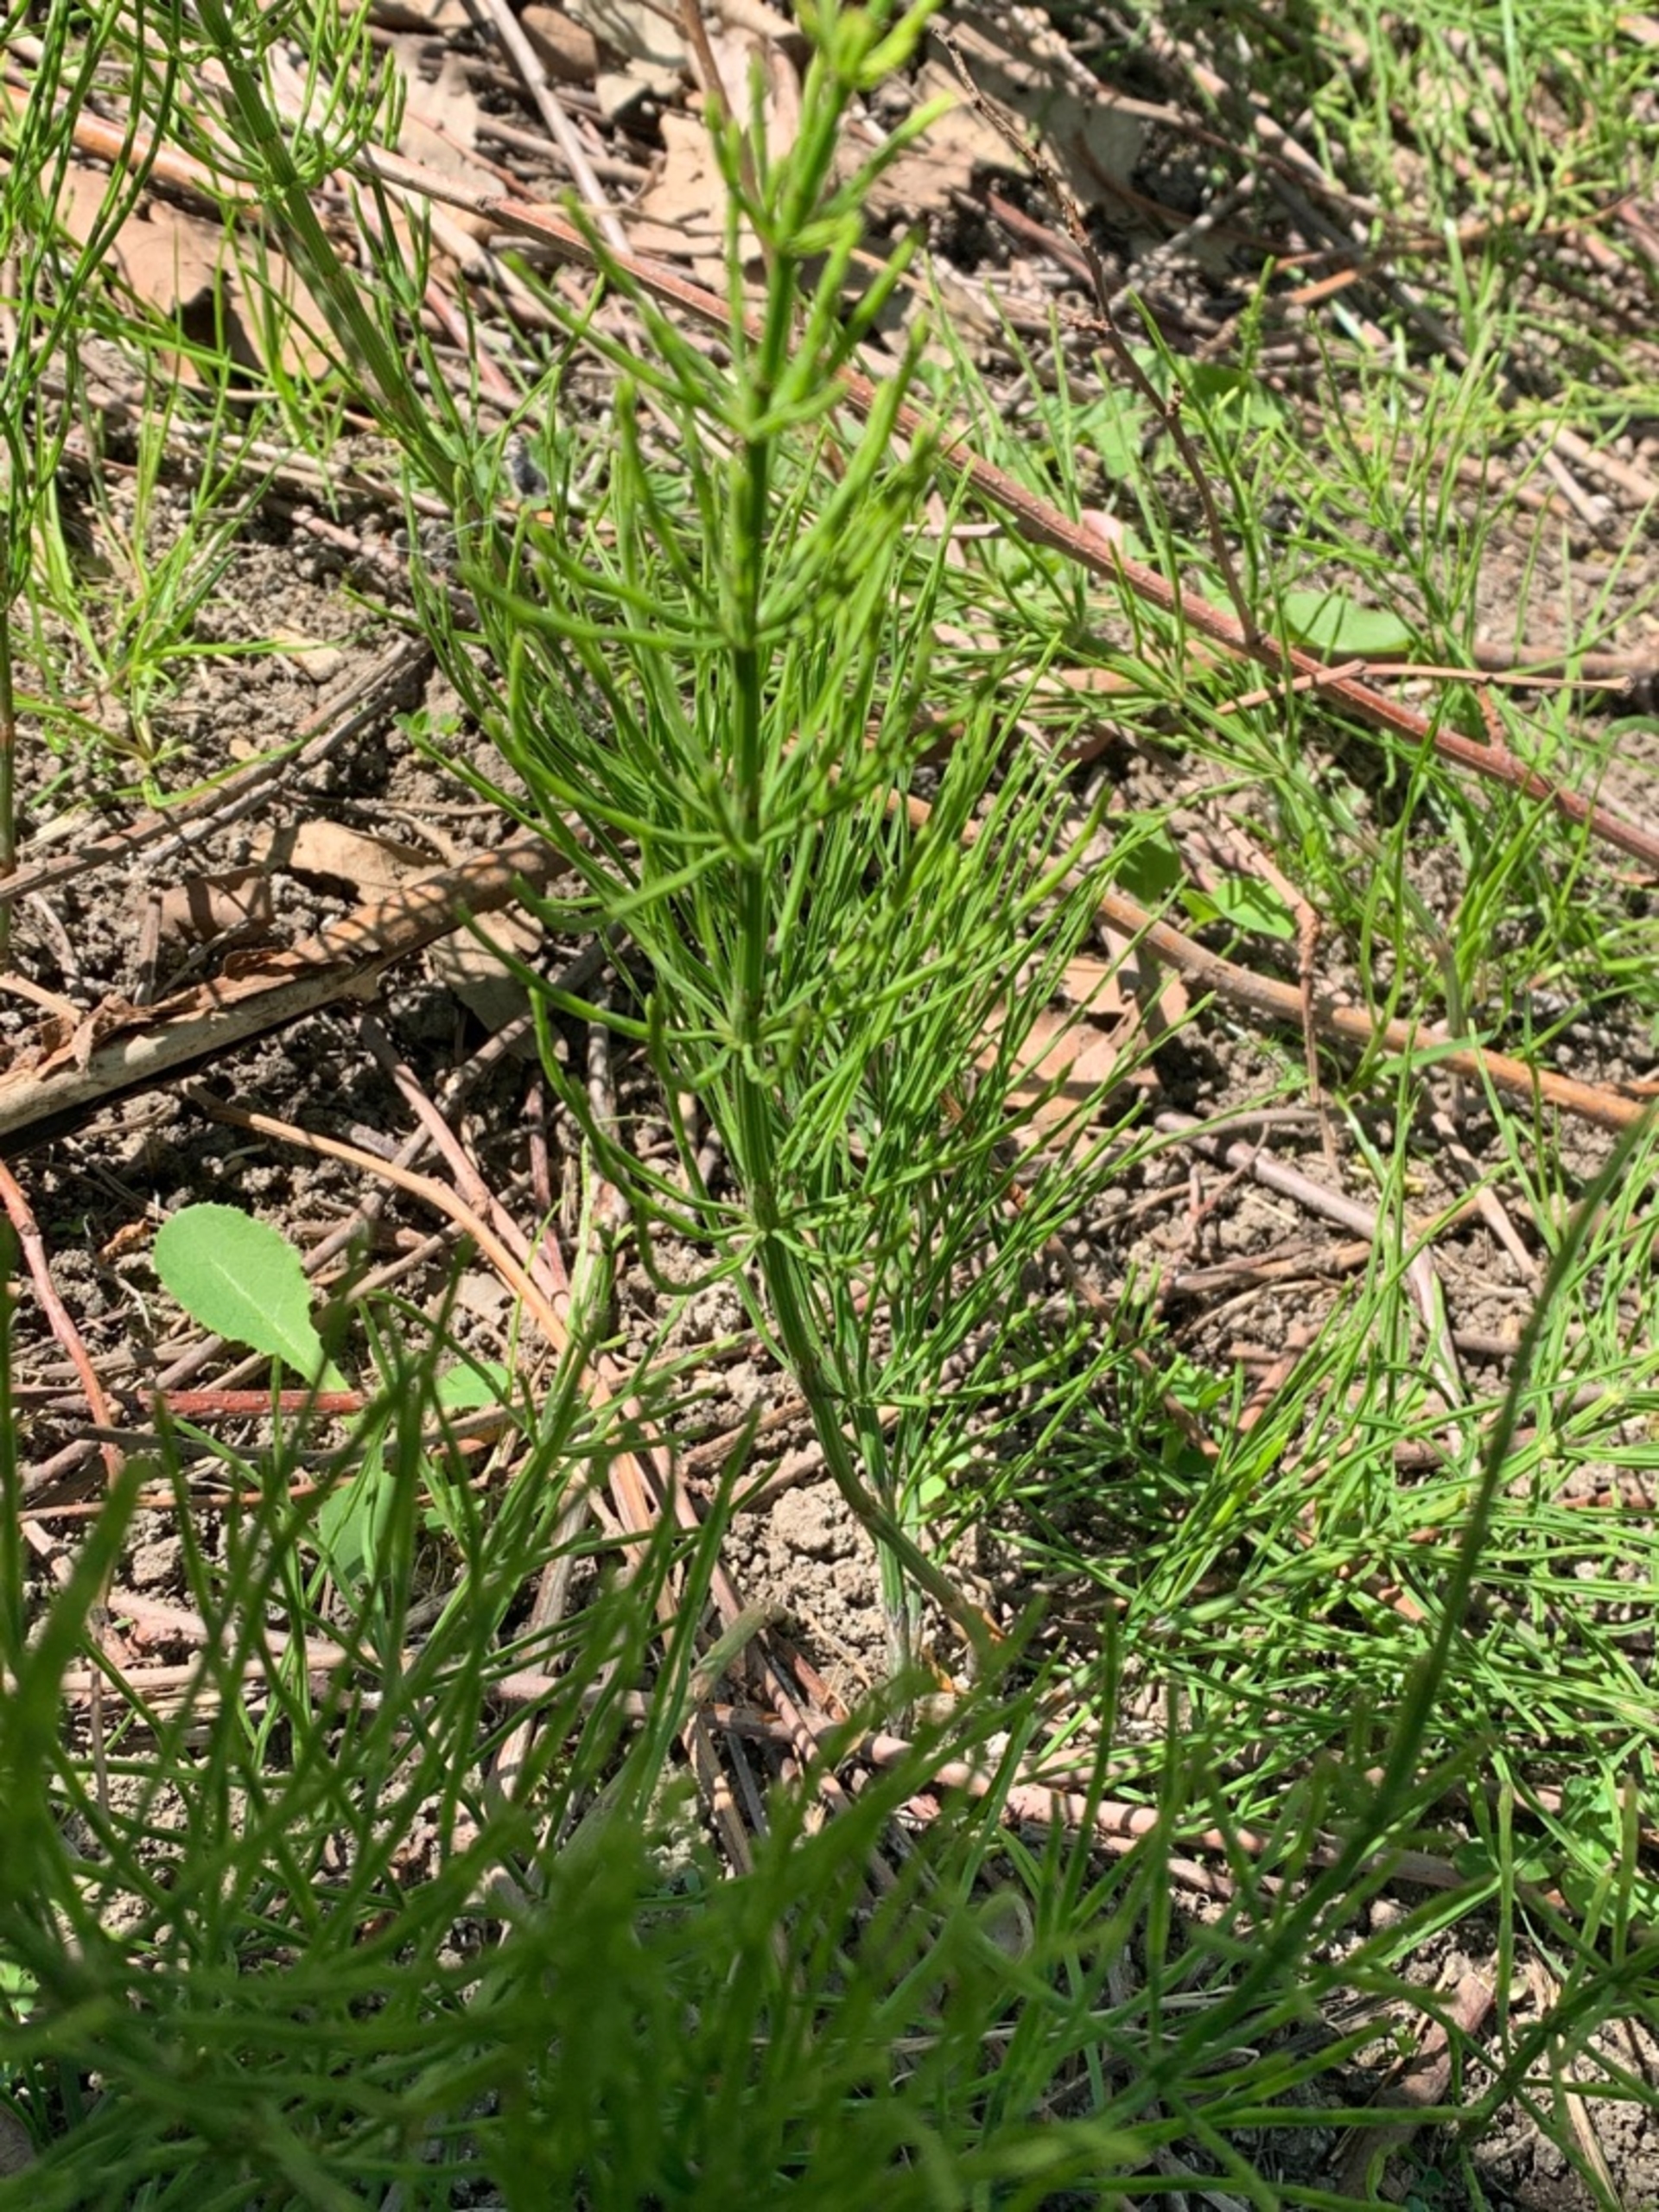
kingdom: Plantae
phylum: Tracheophyta
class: Polypodiopsida
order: Equisetales
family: Equisetaceae
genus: Equisetum
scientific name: Equisetum arvense
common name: Ager-padderok
